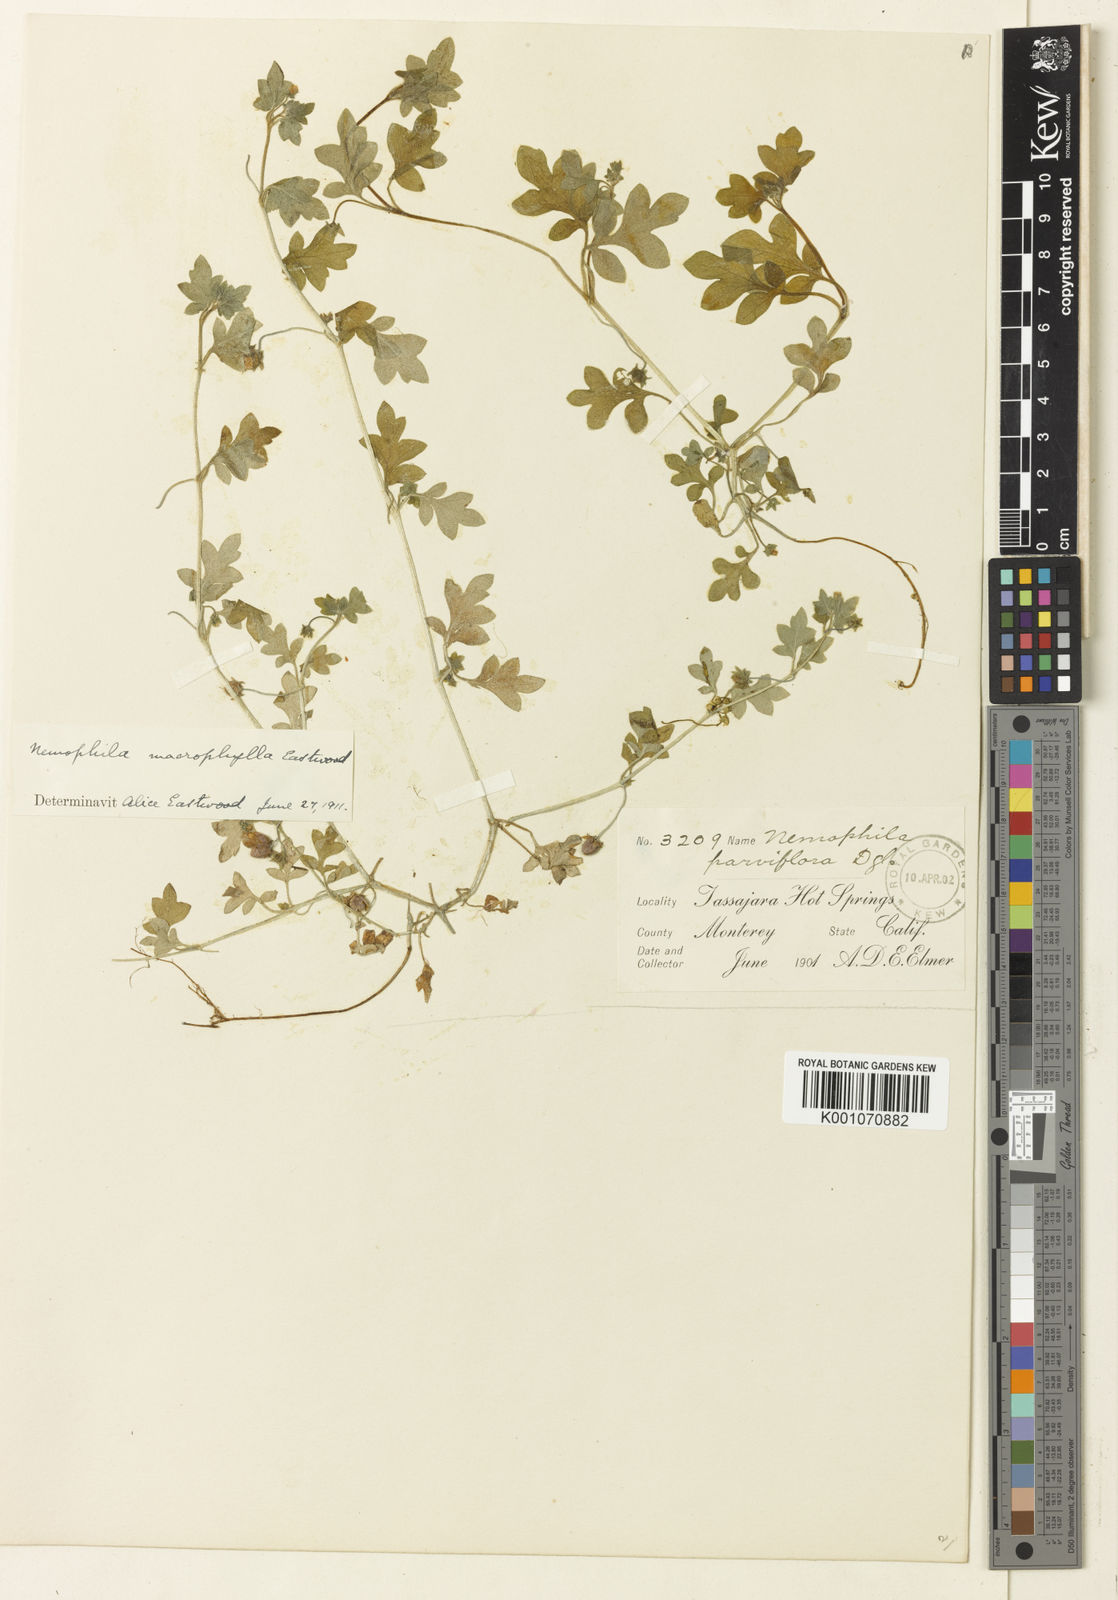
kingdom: Plantae
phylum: Tracheophyta
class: Magnoliopsida
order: Boraginales
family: Hydrophyllaceae
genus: Nemophila
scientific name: Nemophila
